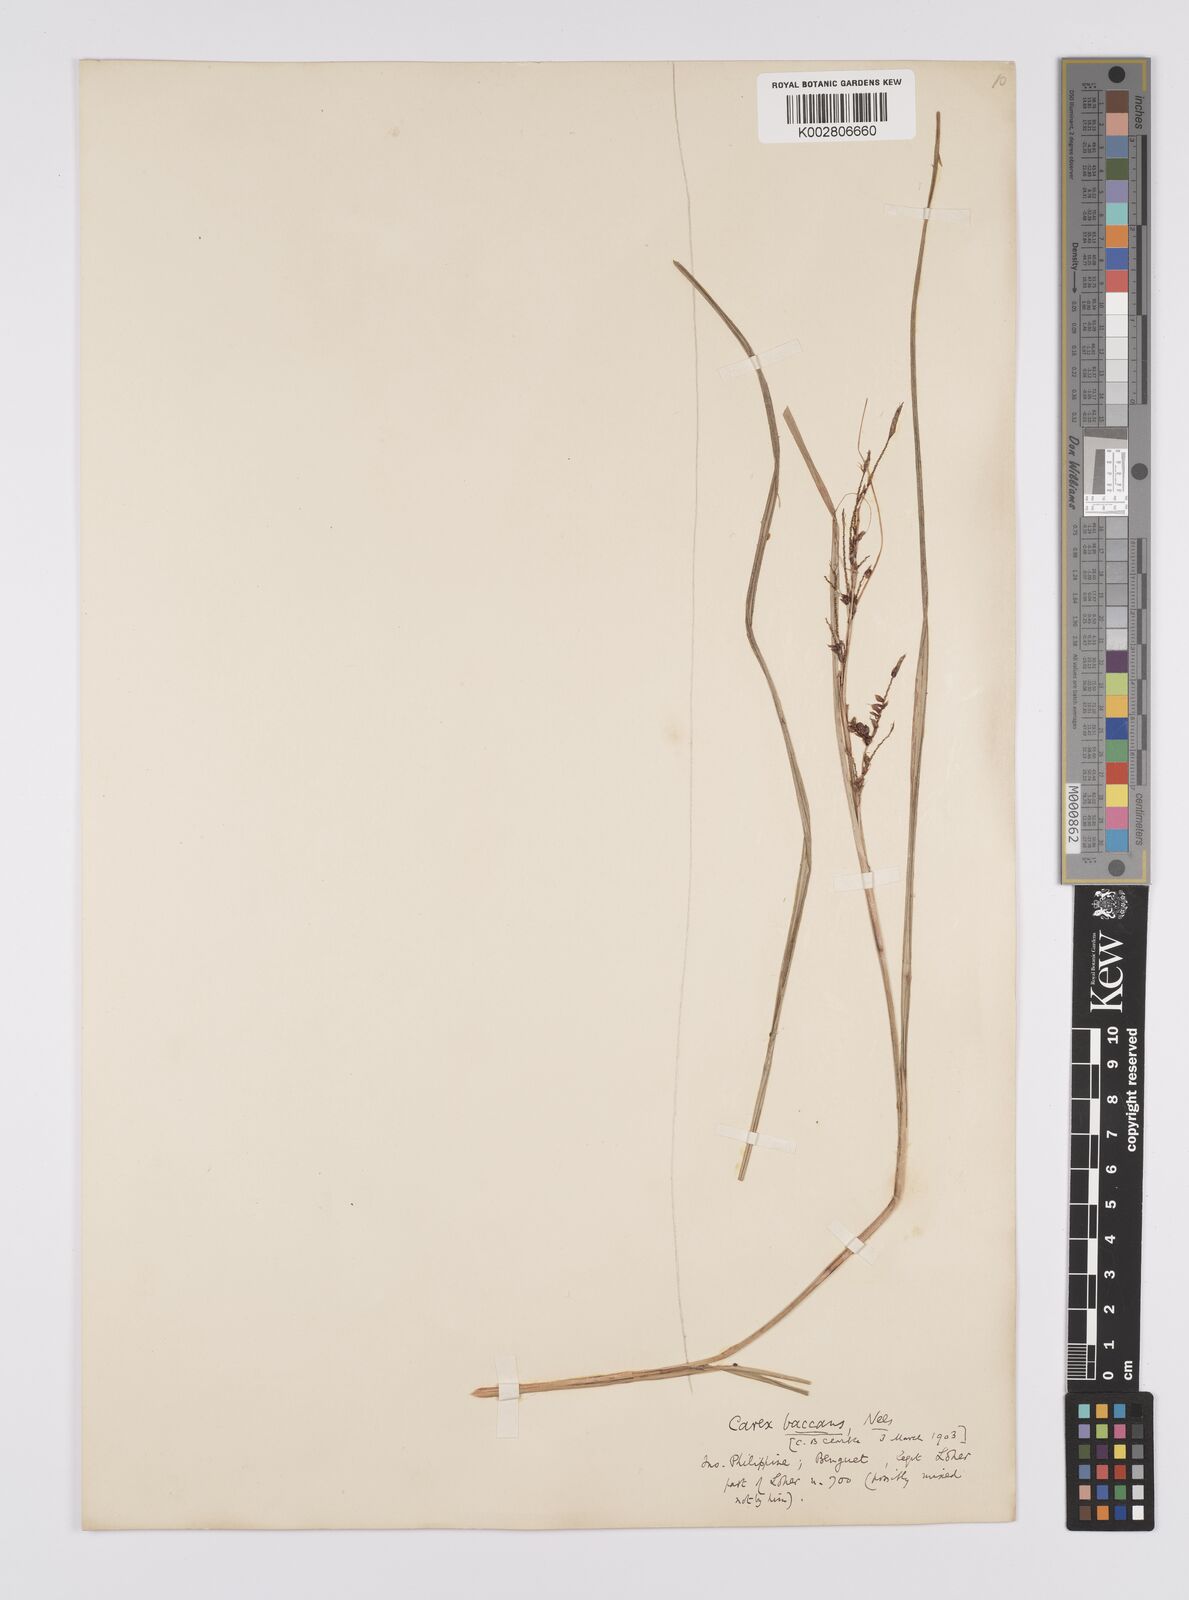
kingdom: Plantae
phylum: Tracheophyta
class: Liliopsida
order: Poales
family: Cyperaceae
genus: Carex
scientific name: Carex baccans
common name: Crimson seeded sedge
